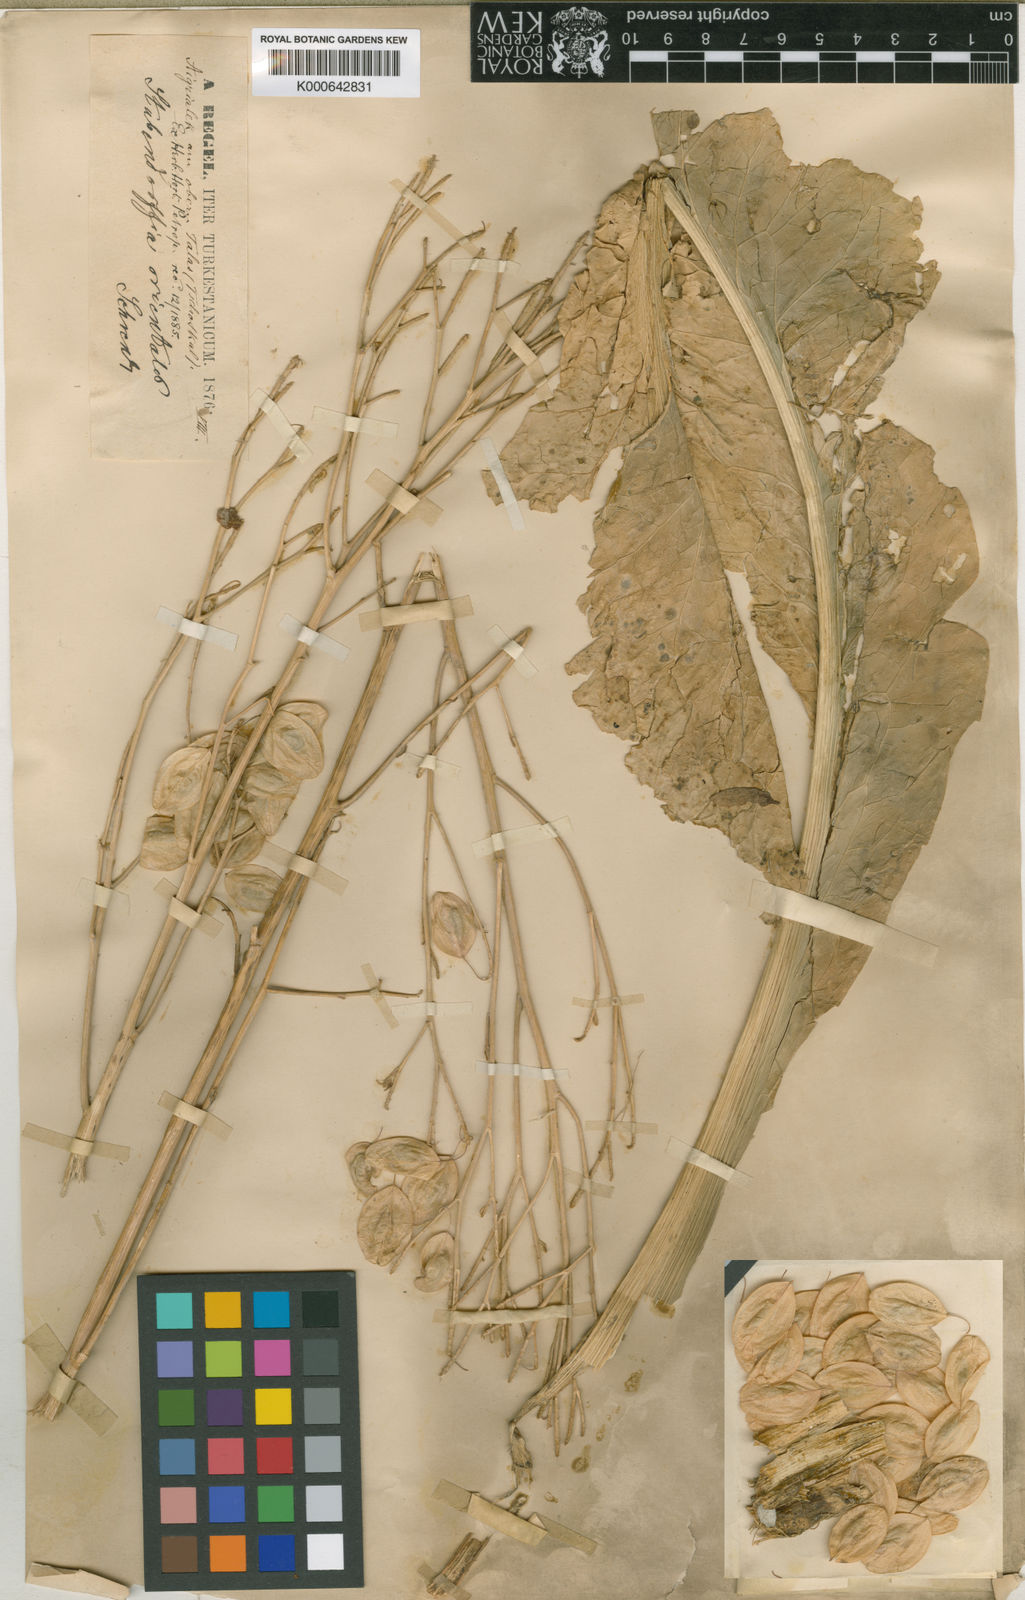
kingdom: Plantae
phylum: Tracheophyta
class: Magnoliopsida
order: Brassicales
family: Brassicaceae
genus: Lepidium
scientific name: Lepidium orientale
